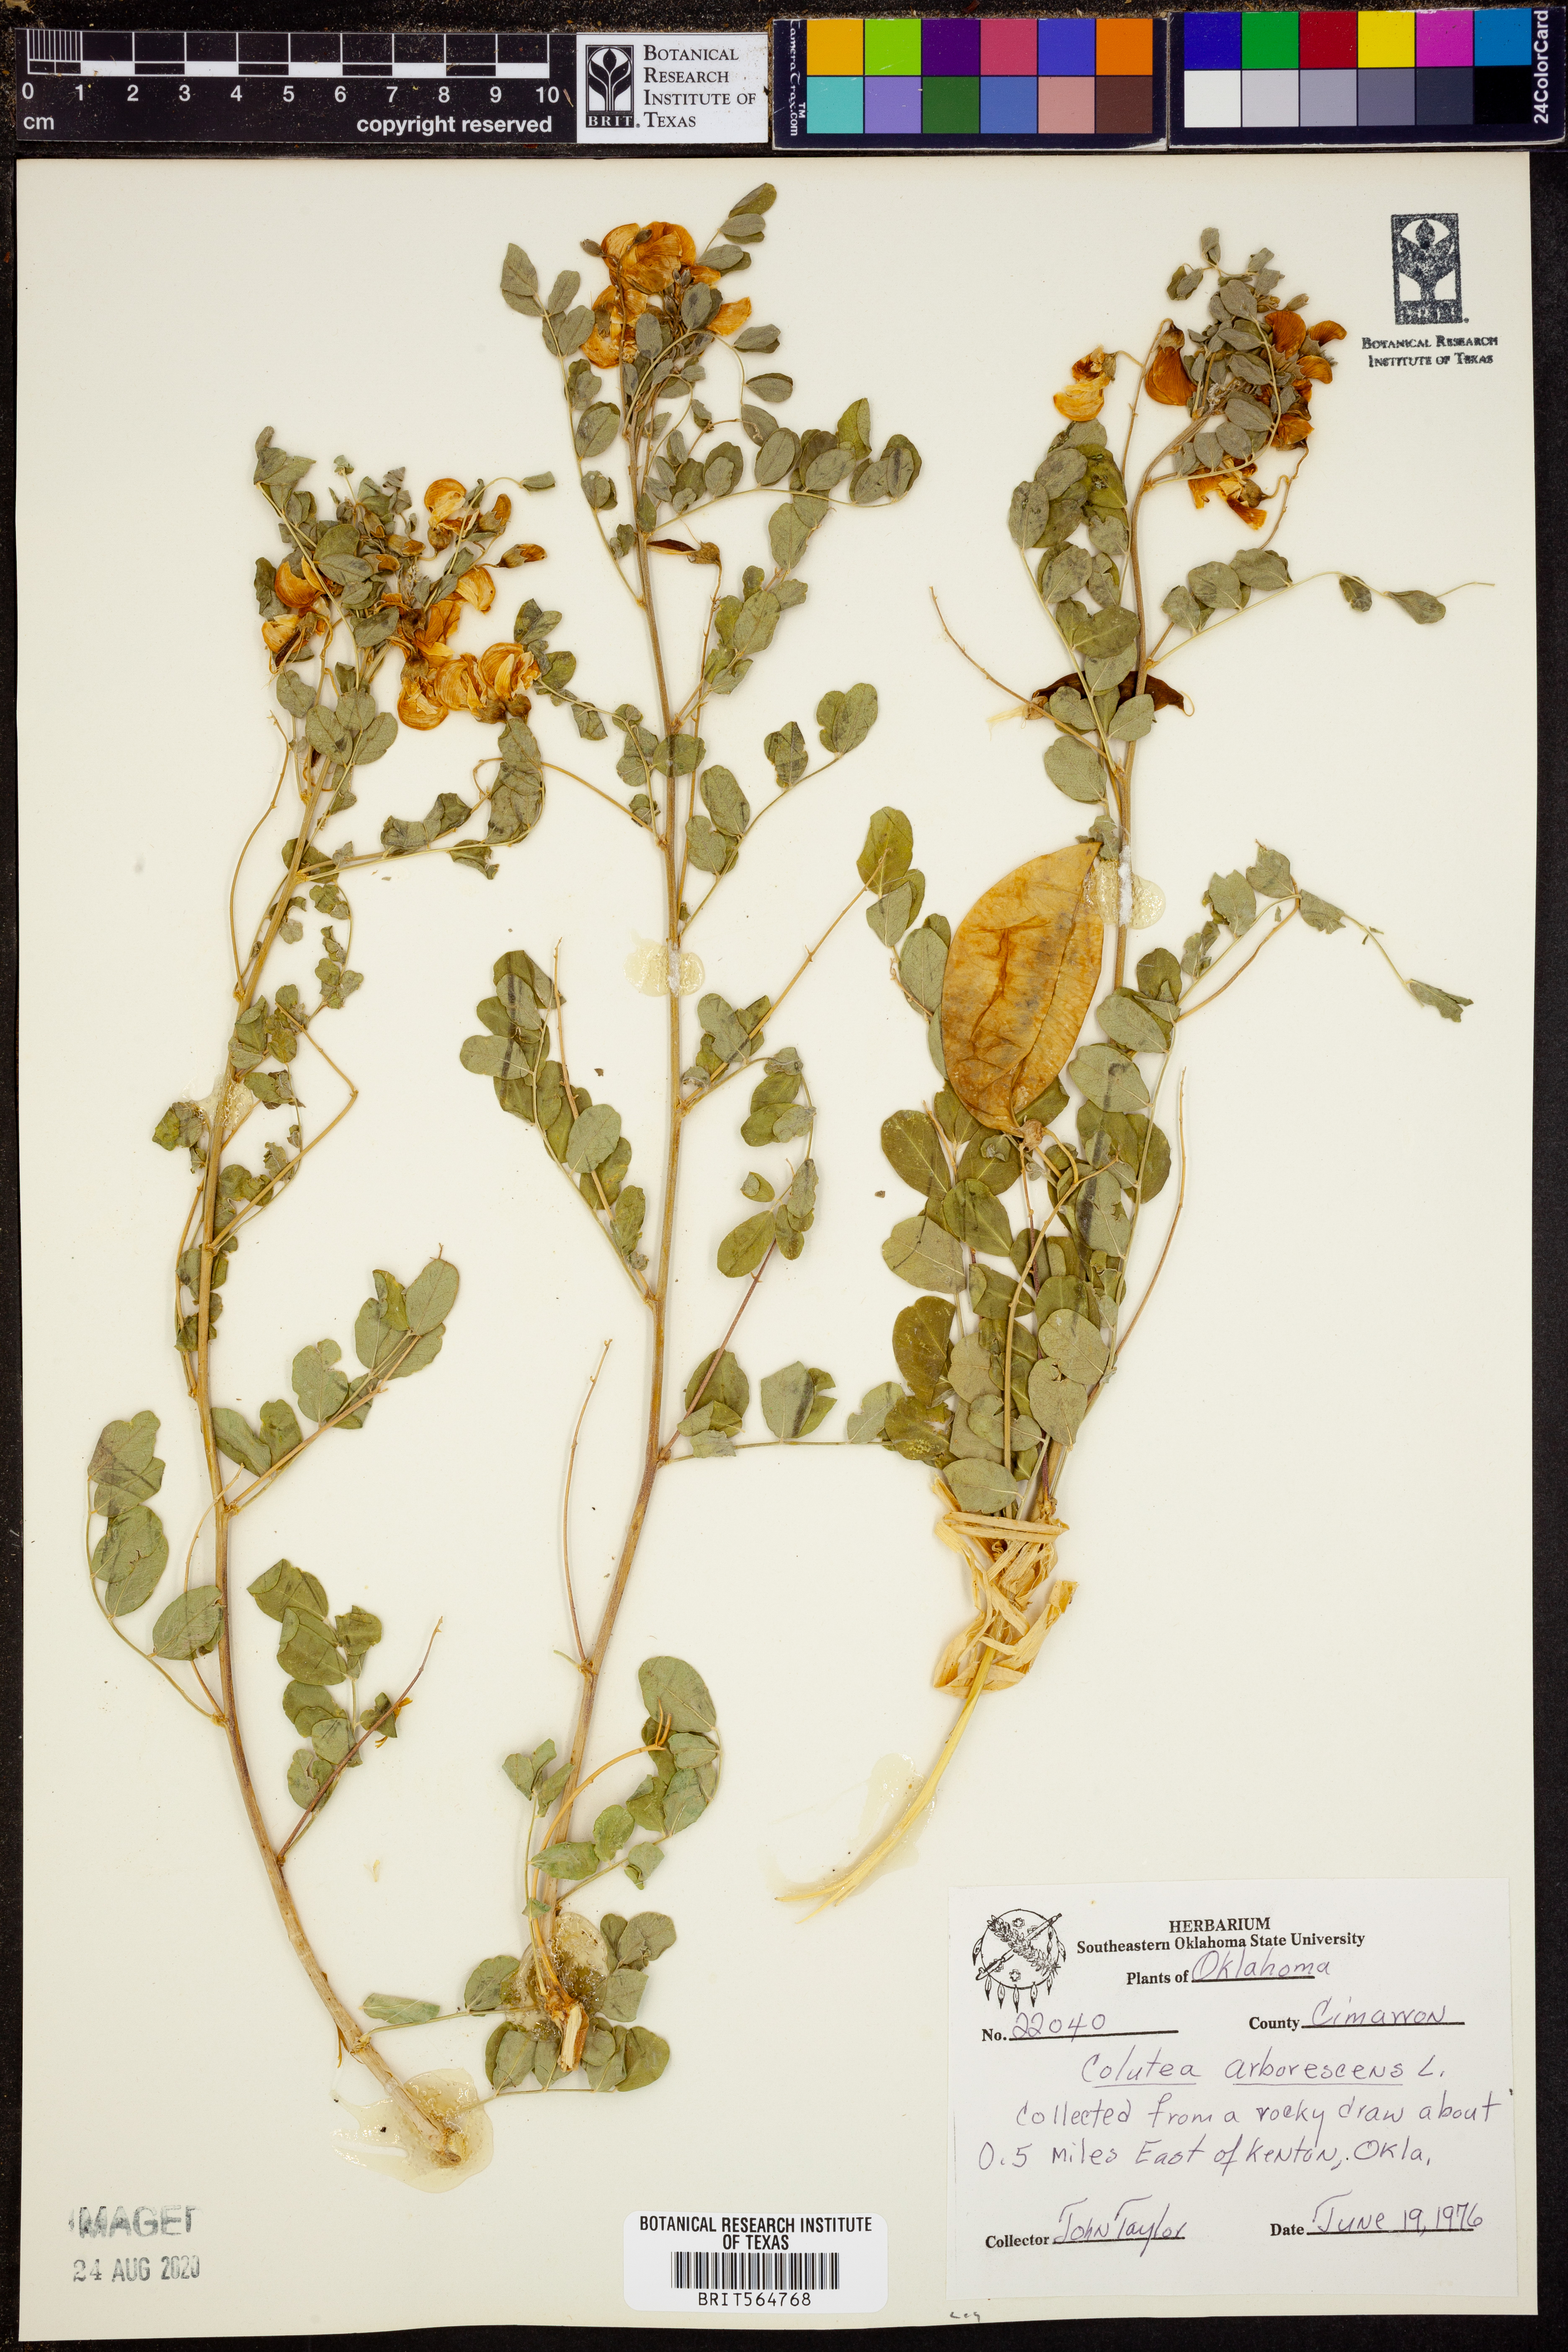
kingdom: Plantae
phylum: Tracheophyta
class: Magnoliopsida
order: Fabales
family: Fabaceae
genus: Colutea
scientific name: Colutea arborescens
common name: Bladder-senna
